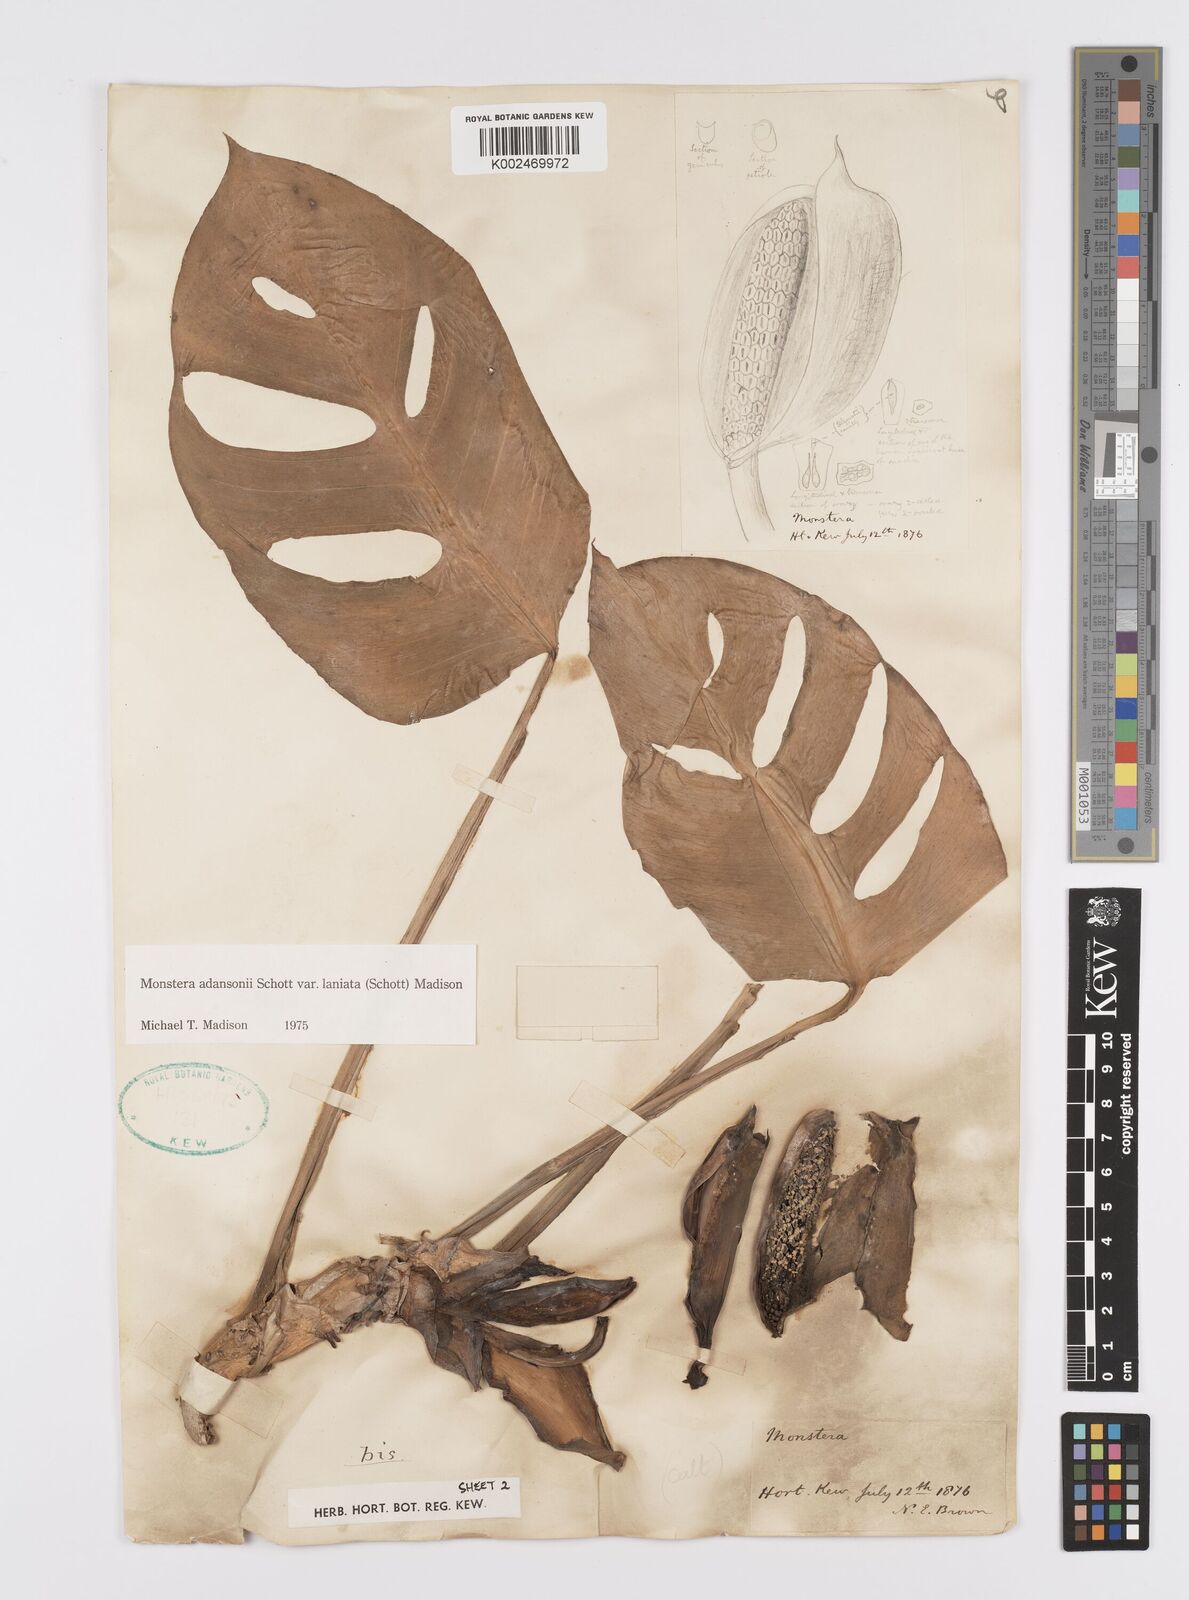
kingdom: Plantae
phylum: Tracheophyta
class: Liliopsida
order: Alismatales
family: Araceae
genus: Monstera
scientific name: Monstera adansonii
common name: Tarovine
